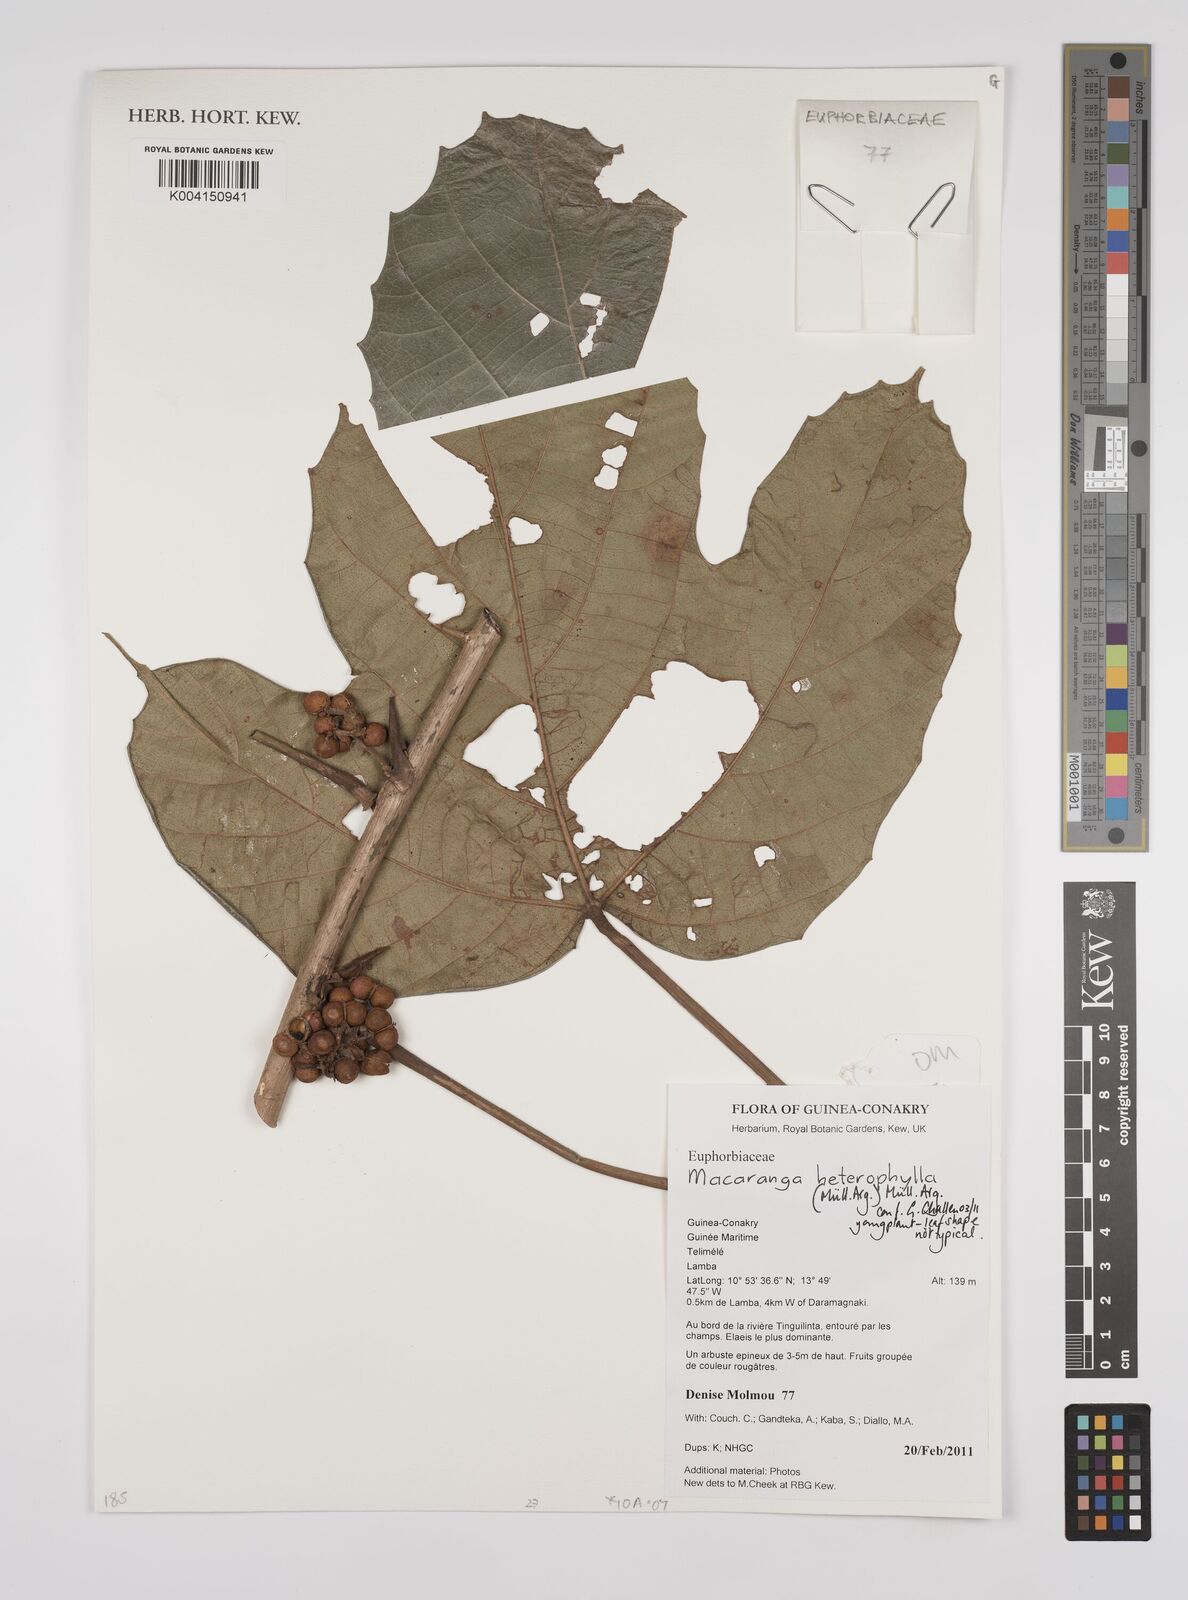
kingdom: Plantae
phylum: Tracheophyta
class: Magnoliopsida
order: Malpighiales
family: Euphorbiaceae
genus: Macaranga
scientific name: Macaranga heterophylla
